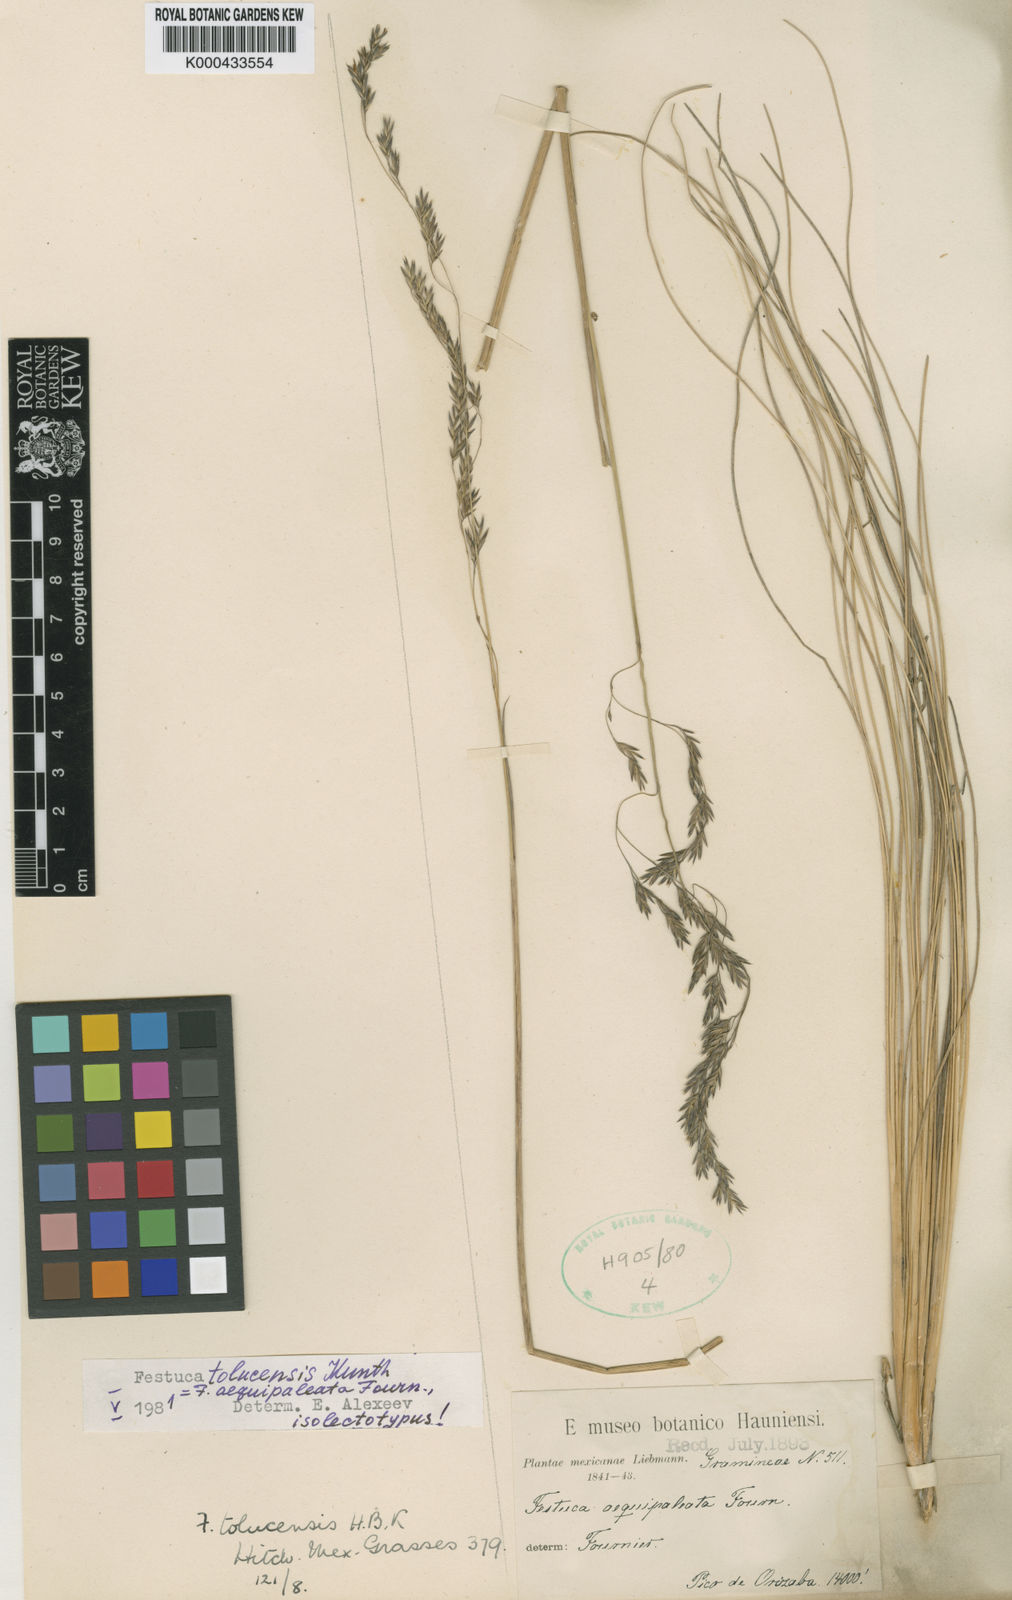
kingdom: Plantae
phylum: Tracheophyta
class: Liliopsida
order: Poales
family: Poaceae
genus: Festuca
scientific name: Festuca tolucensis
